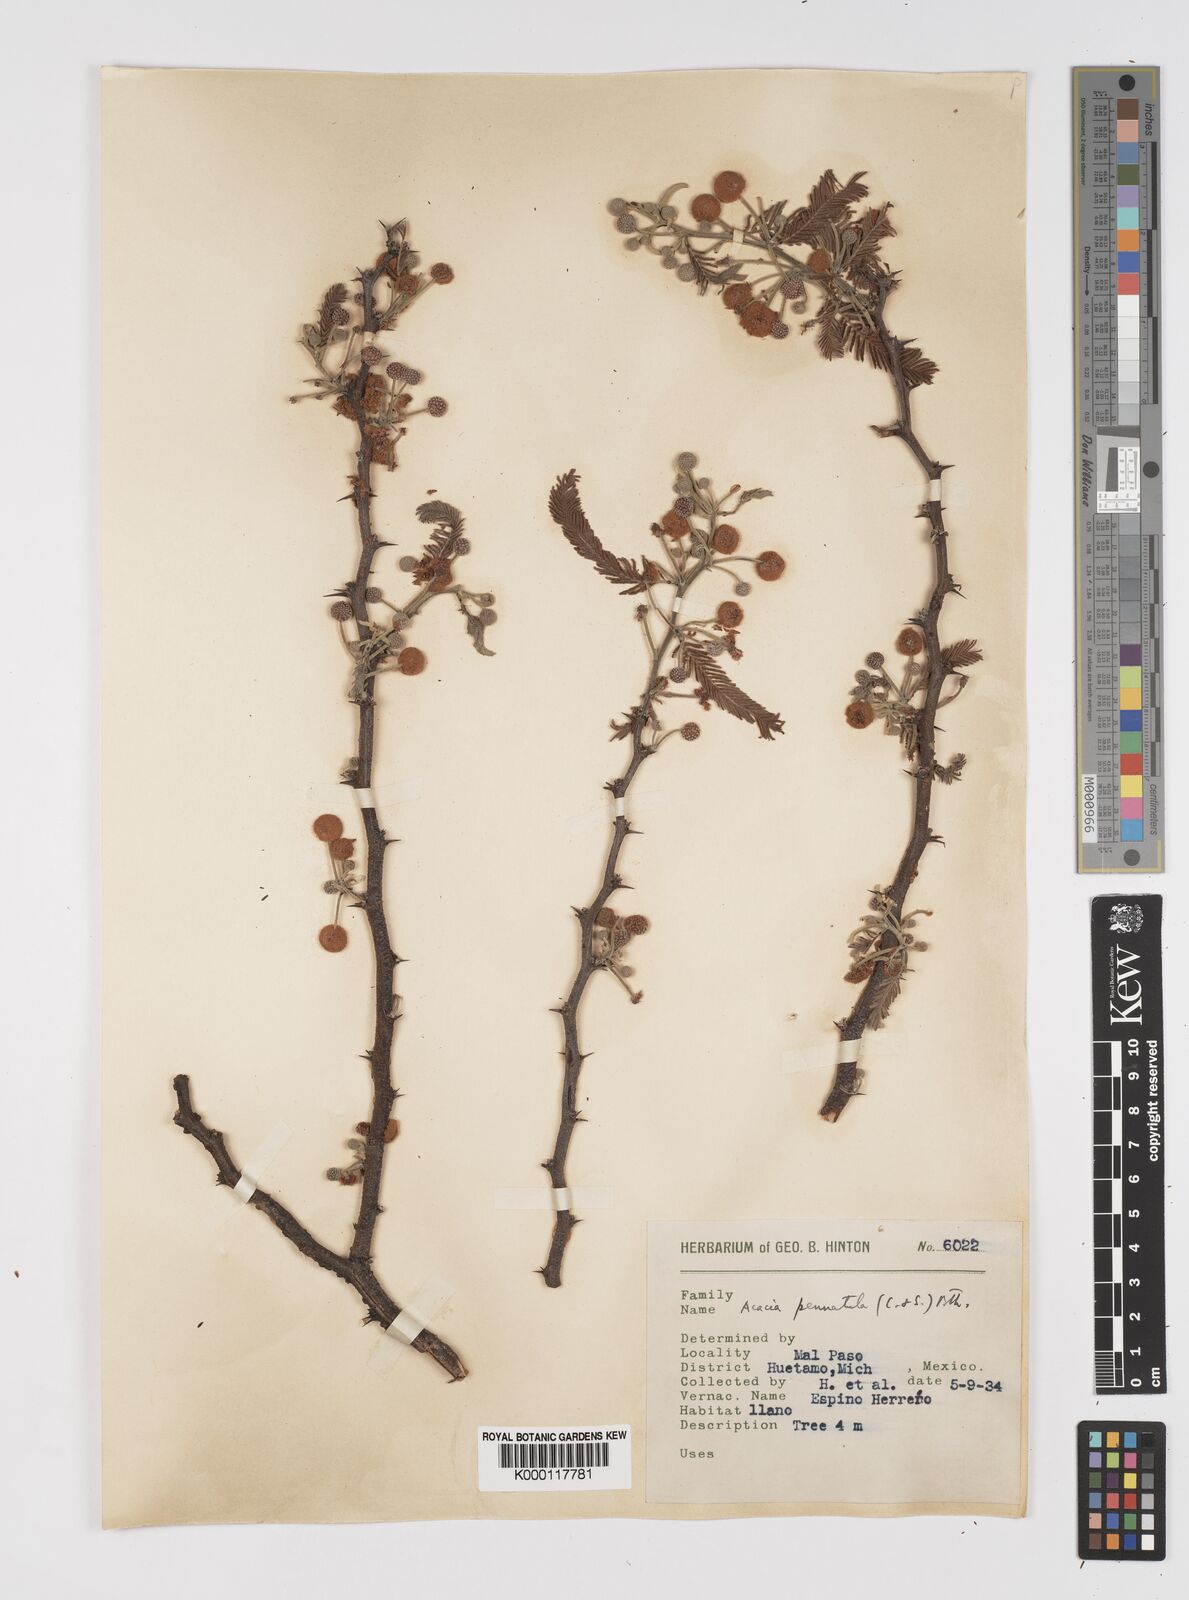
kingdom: Plantae
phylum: Tracheophyta
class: Magnoliopsida
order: Fabales
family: Fabaceae
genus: Vachellia
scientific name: Vachellia pennatula
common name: Fern-leaf acacia
